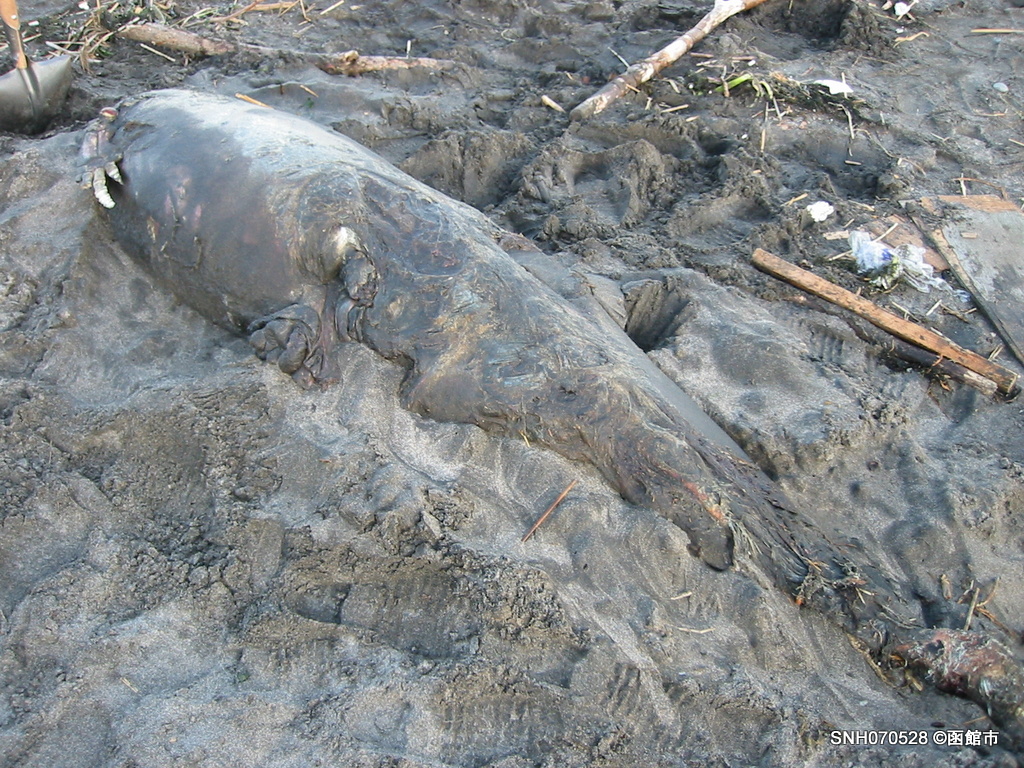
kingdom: Animalia
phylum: Chordata
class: Mammalia
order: Cetacea
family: Delphinidae
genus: Lagenorhynchus
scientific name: Lagenorhynchus obliquidens
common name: Pacific white-sided dolphin
